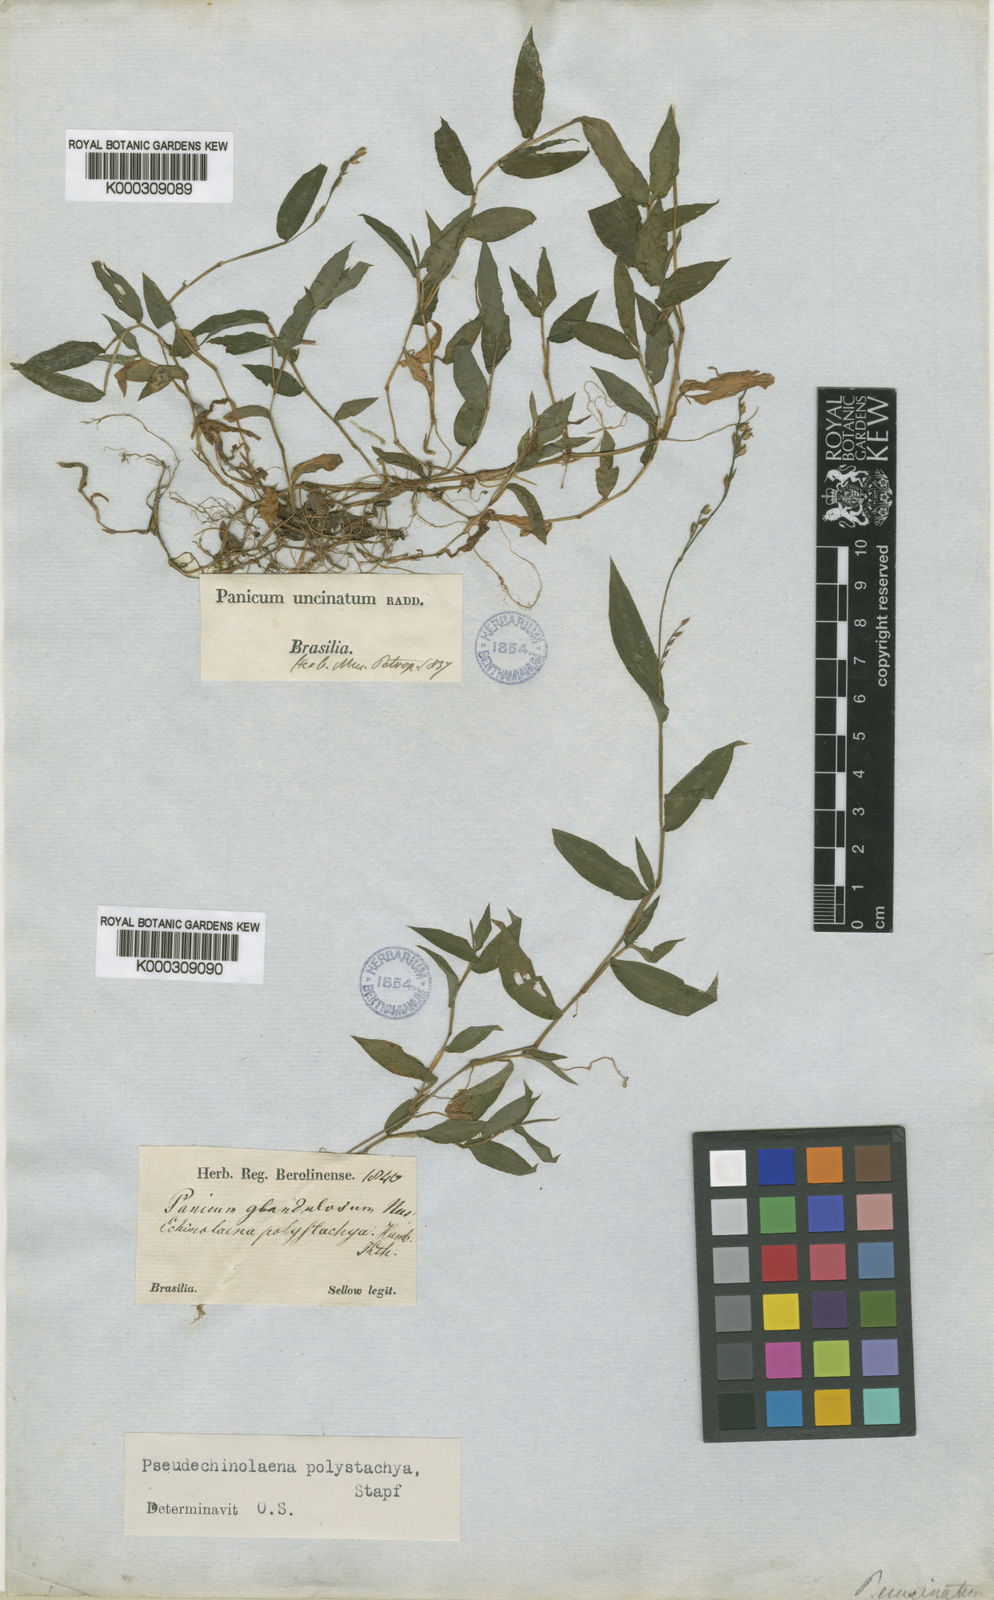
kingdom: Plantae
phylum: Tracheophyta
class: Liliopsida
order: Poales
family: Poaceae
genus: Pseudechinolaena
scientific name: Pseudechinolaena polystachya
